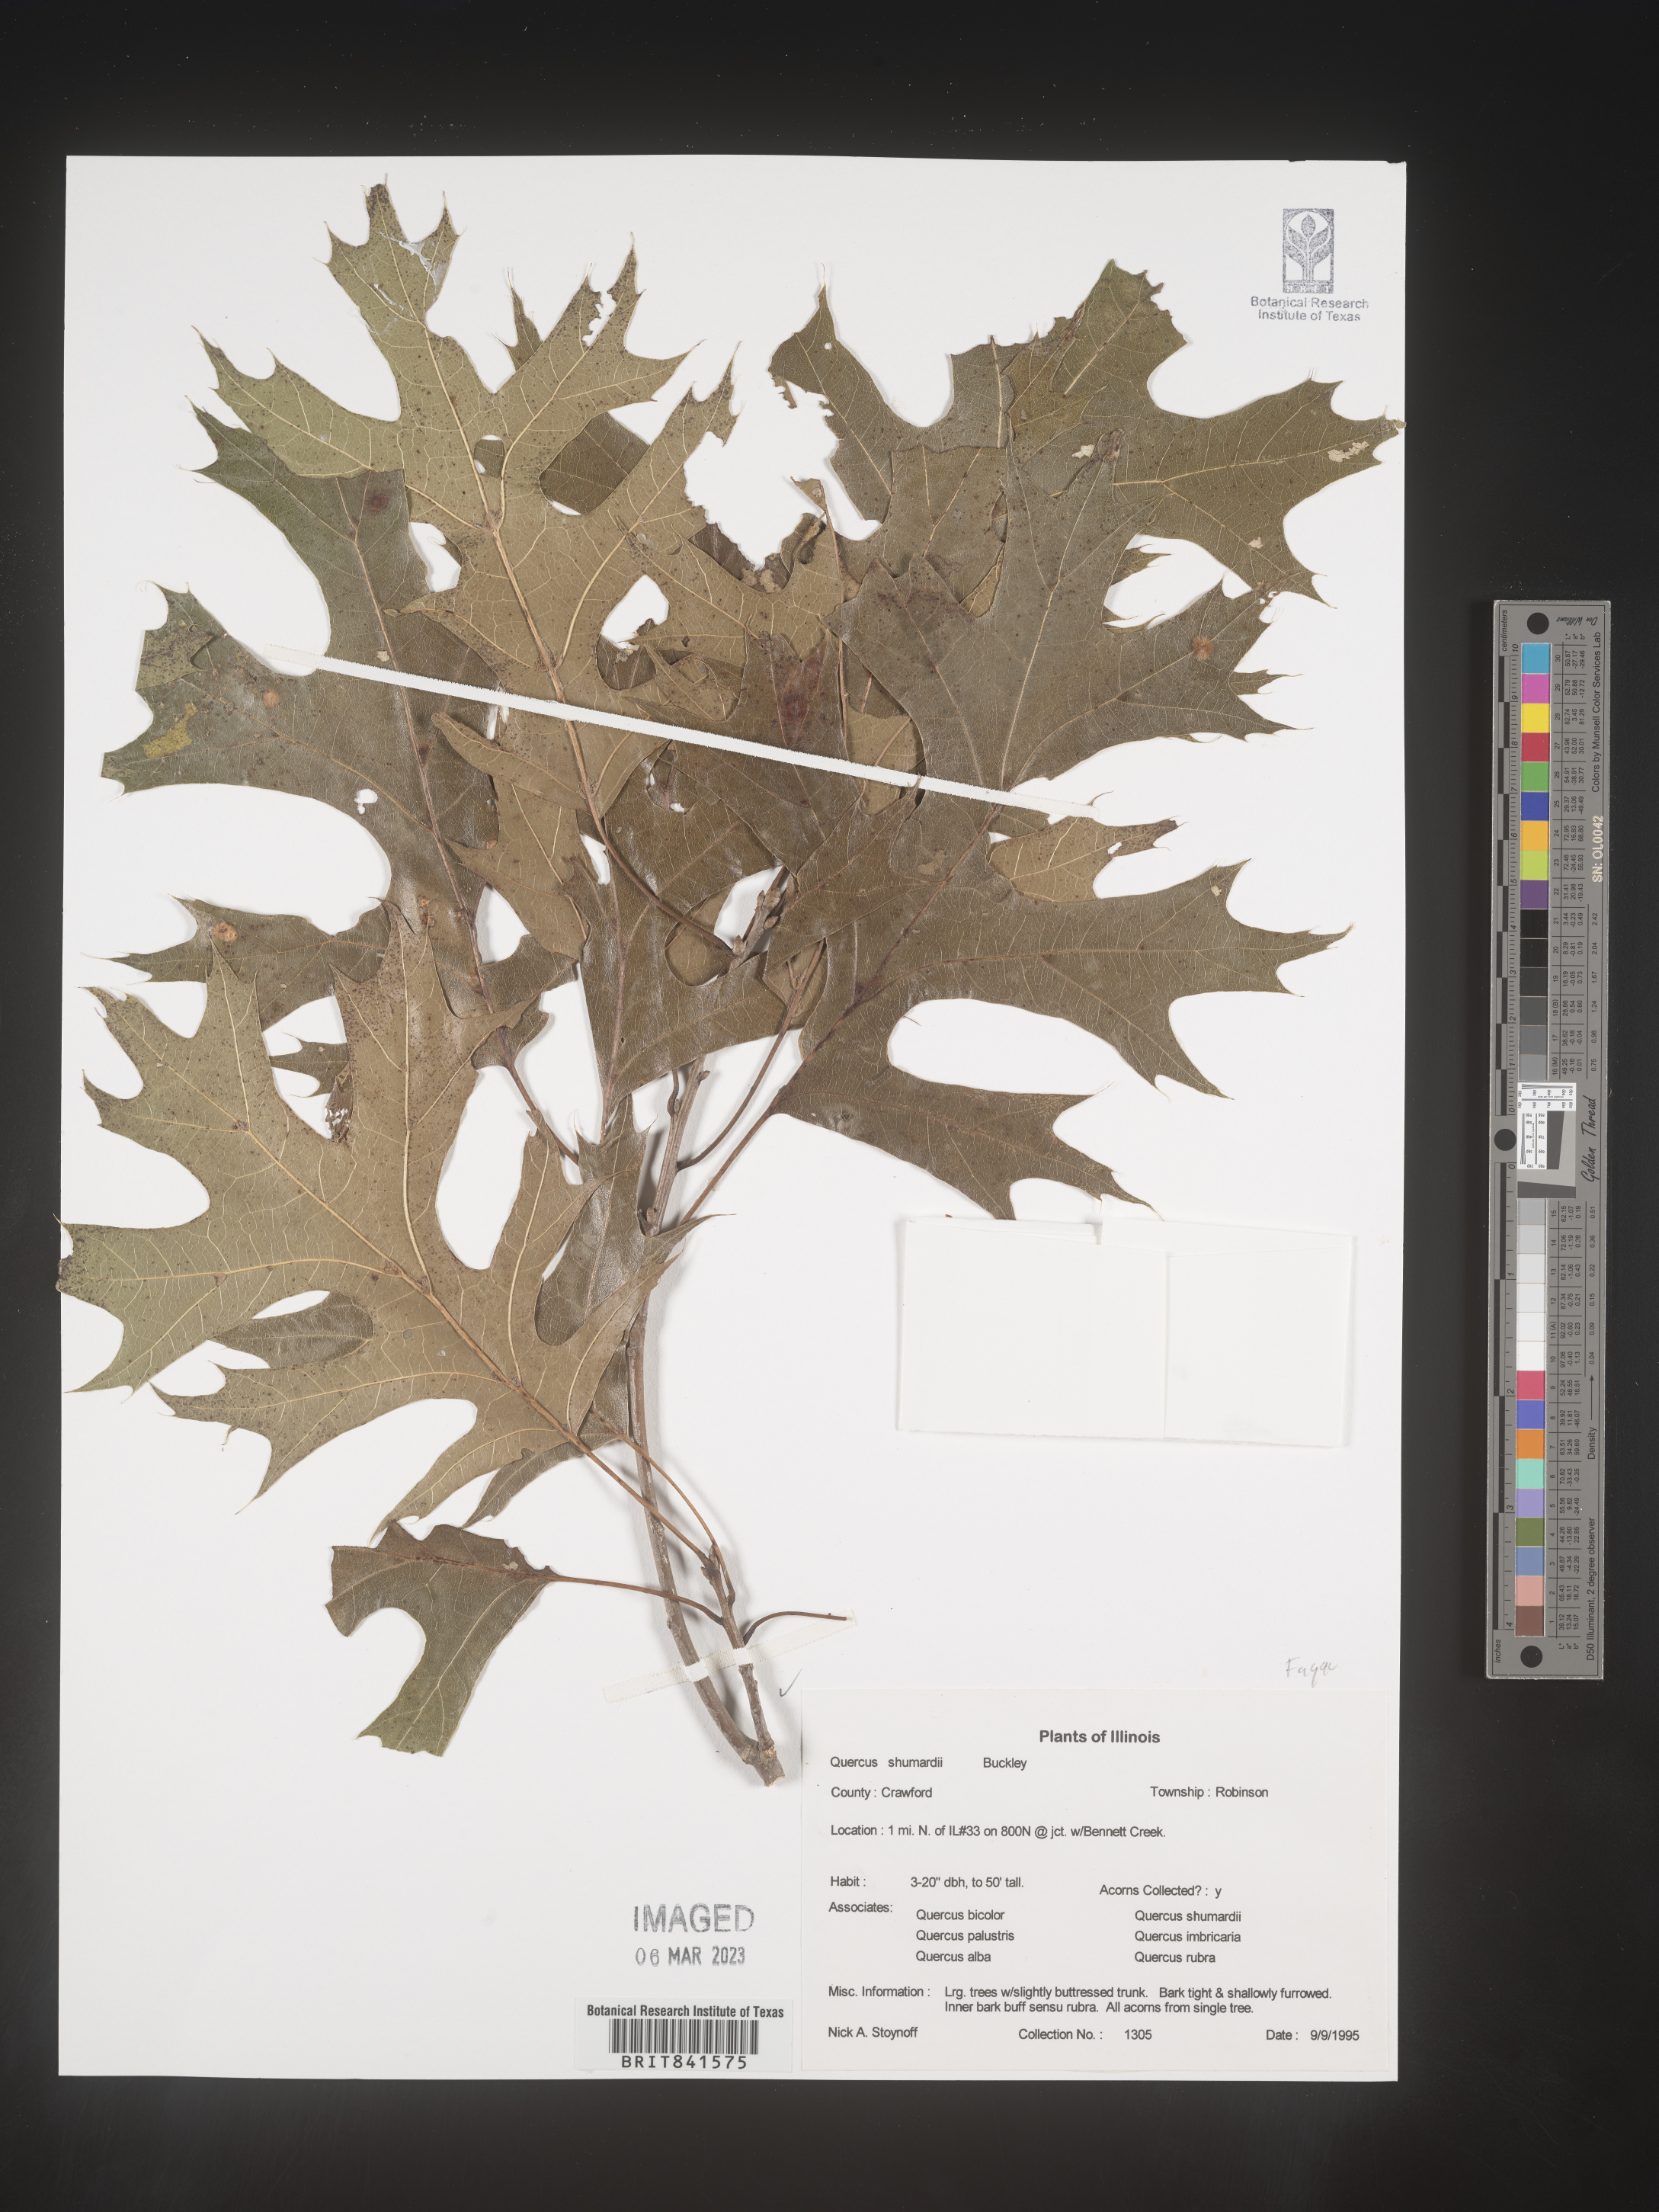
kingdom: Plantae
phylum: Tracheophyta
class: Magnoliopsida
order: Fagales
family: Fagaceae
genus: Quercus
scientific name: Quercus shumardii
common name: Shumard oak
